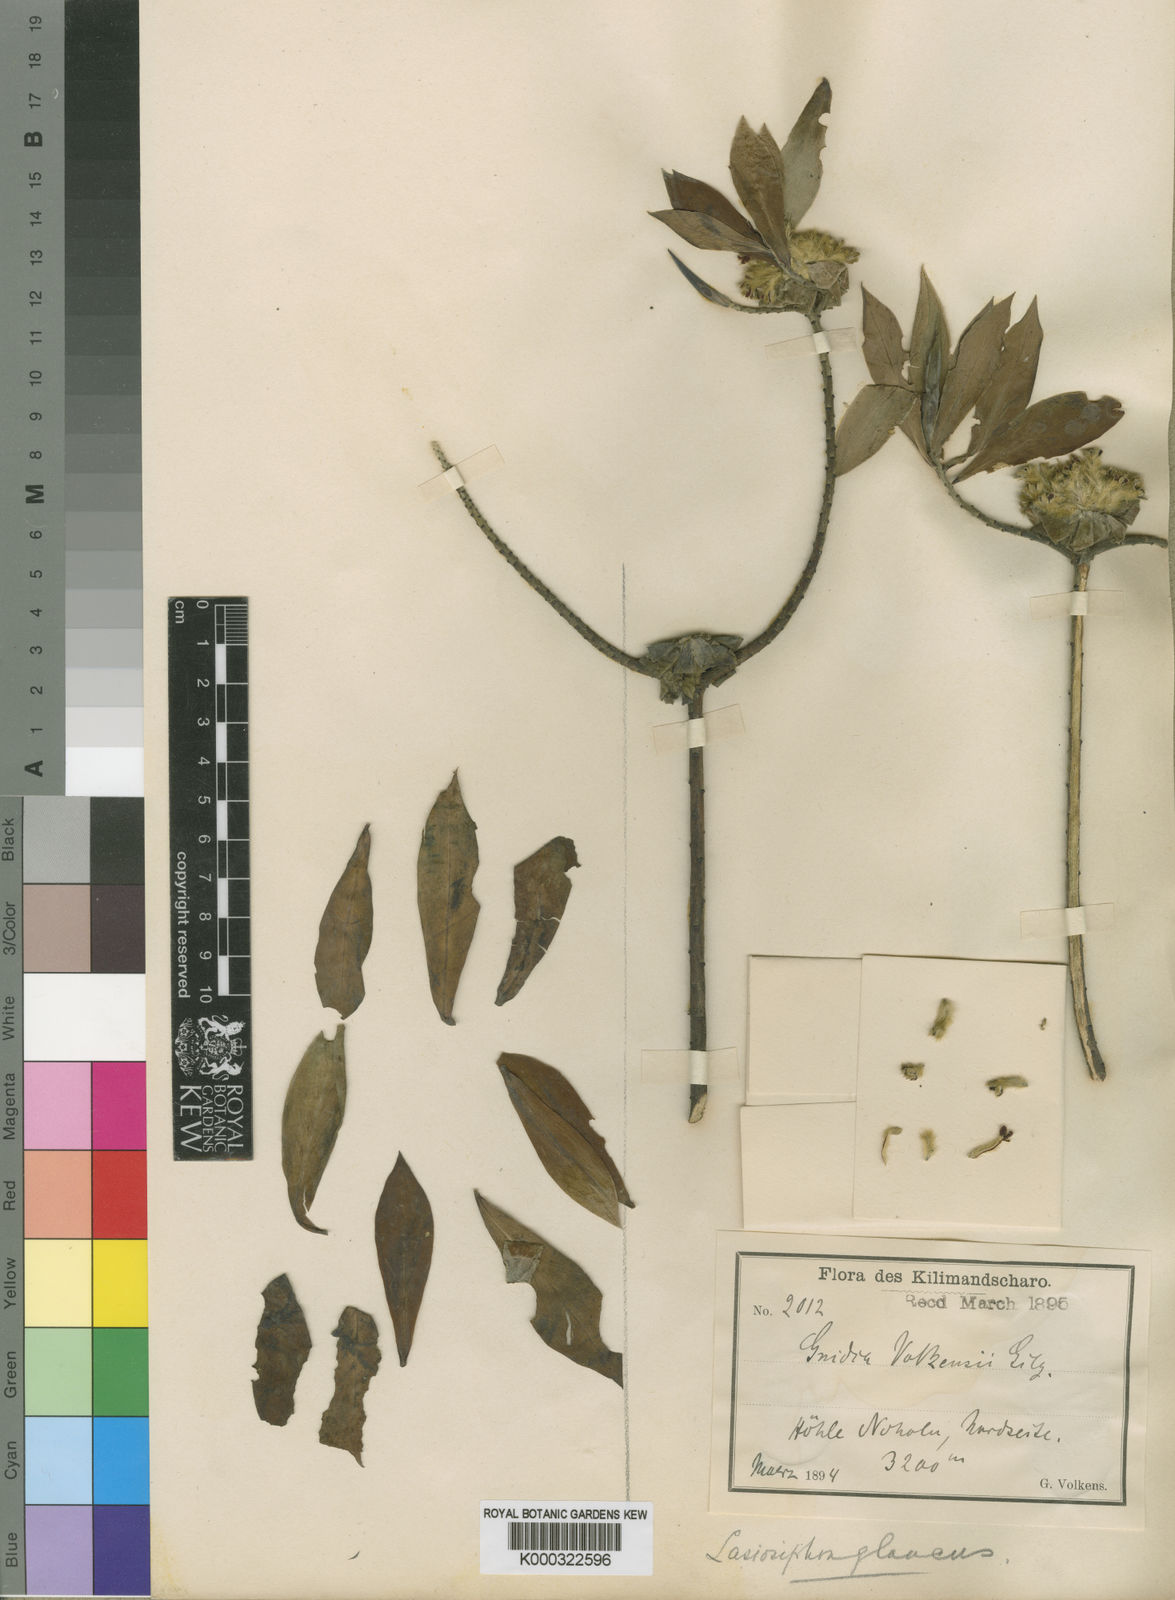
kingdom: Plantae
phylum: Tracheophyta
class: Magnoliopsida
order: Malvales
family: Thymelaeaceae
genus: Gnidia
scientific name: Gnidia glauca
